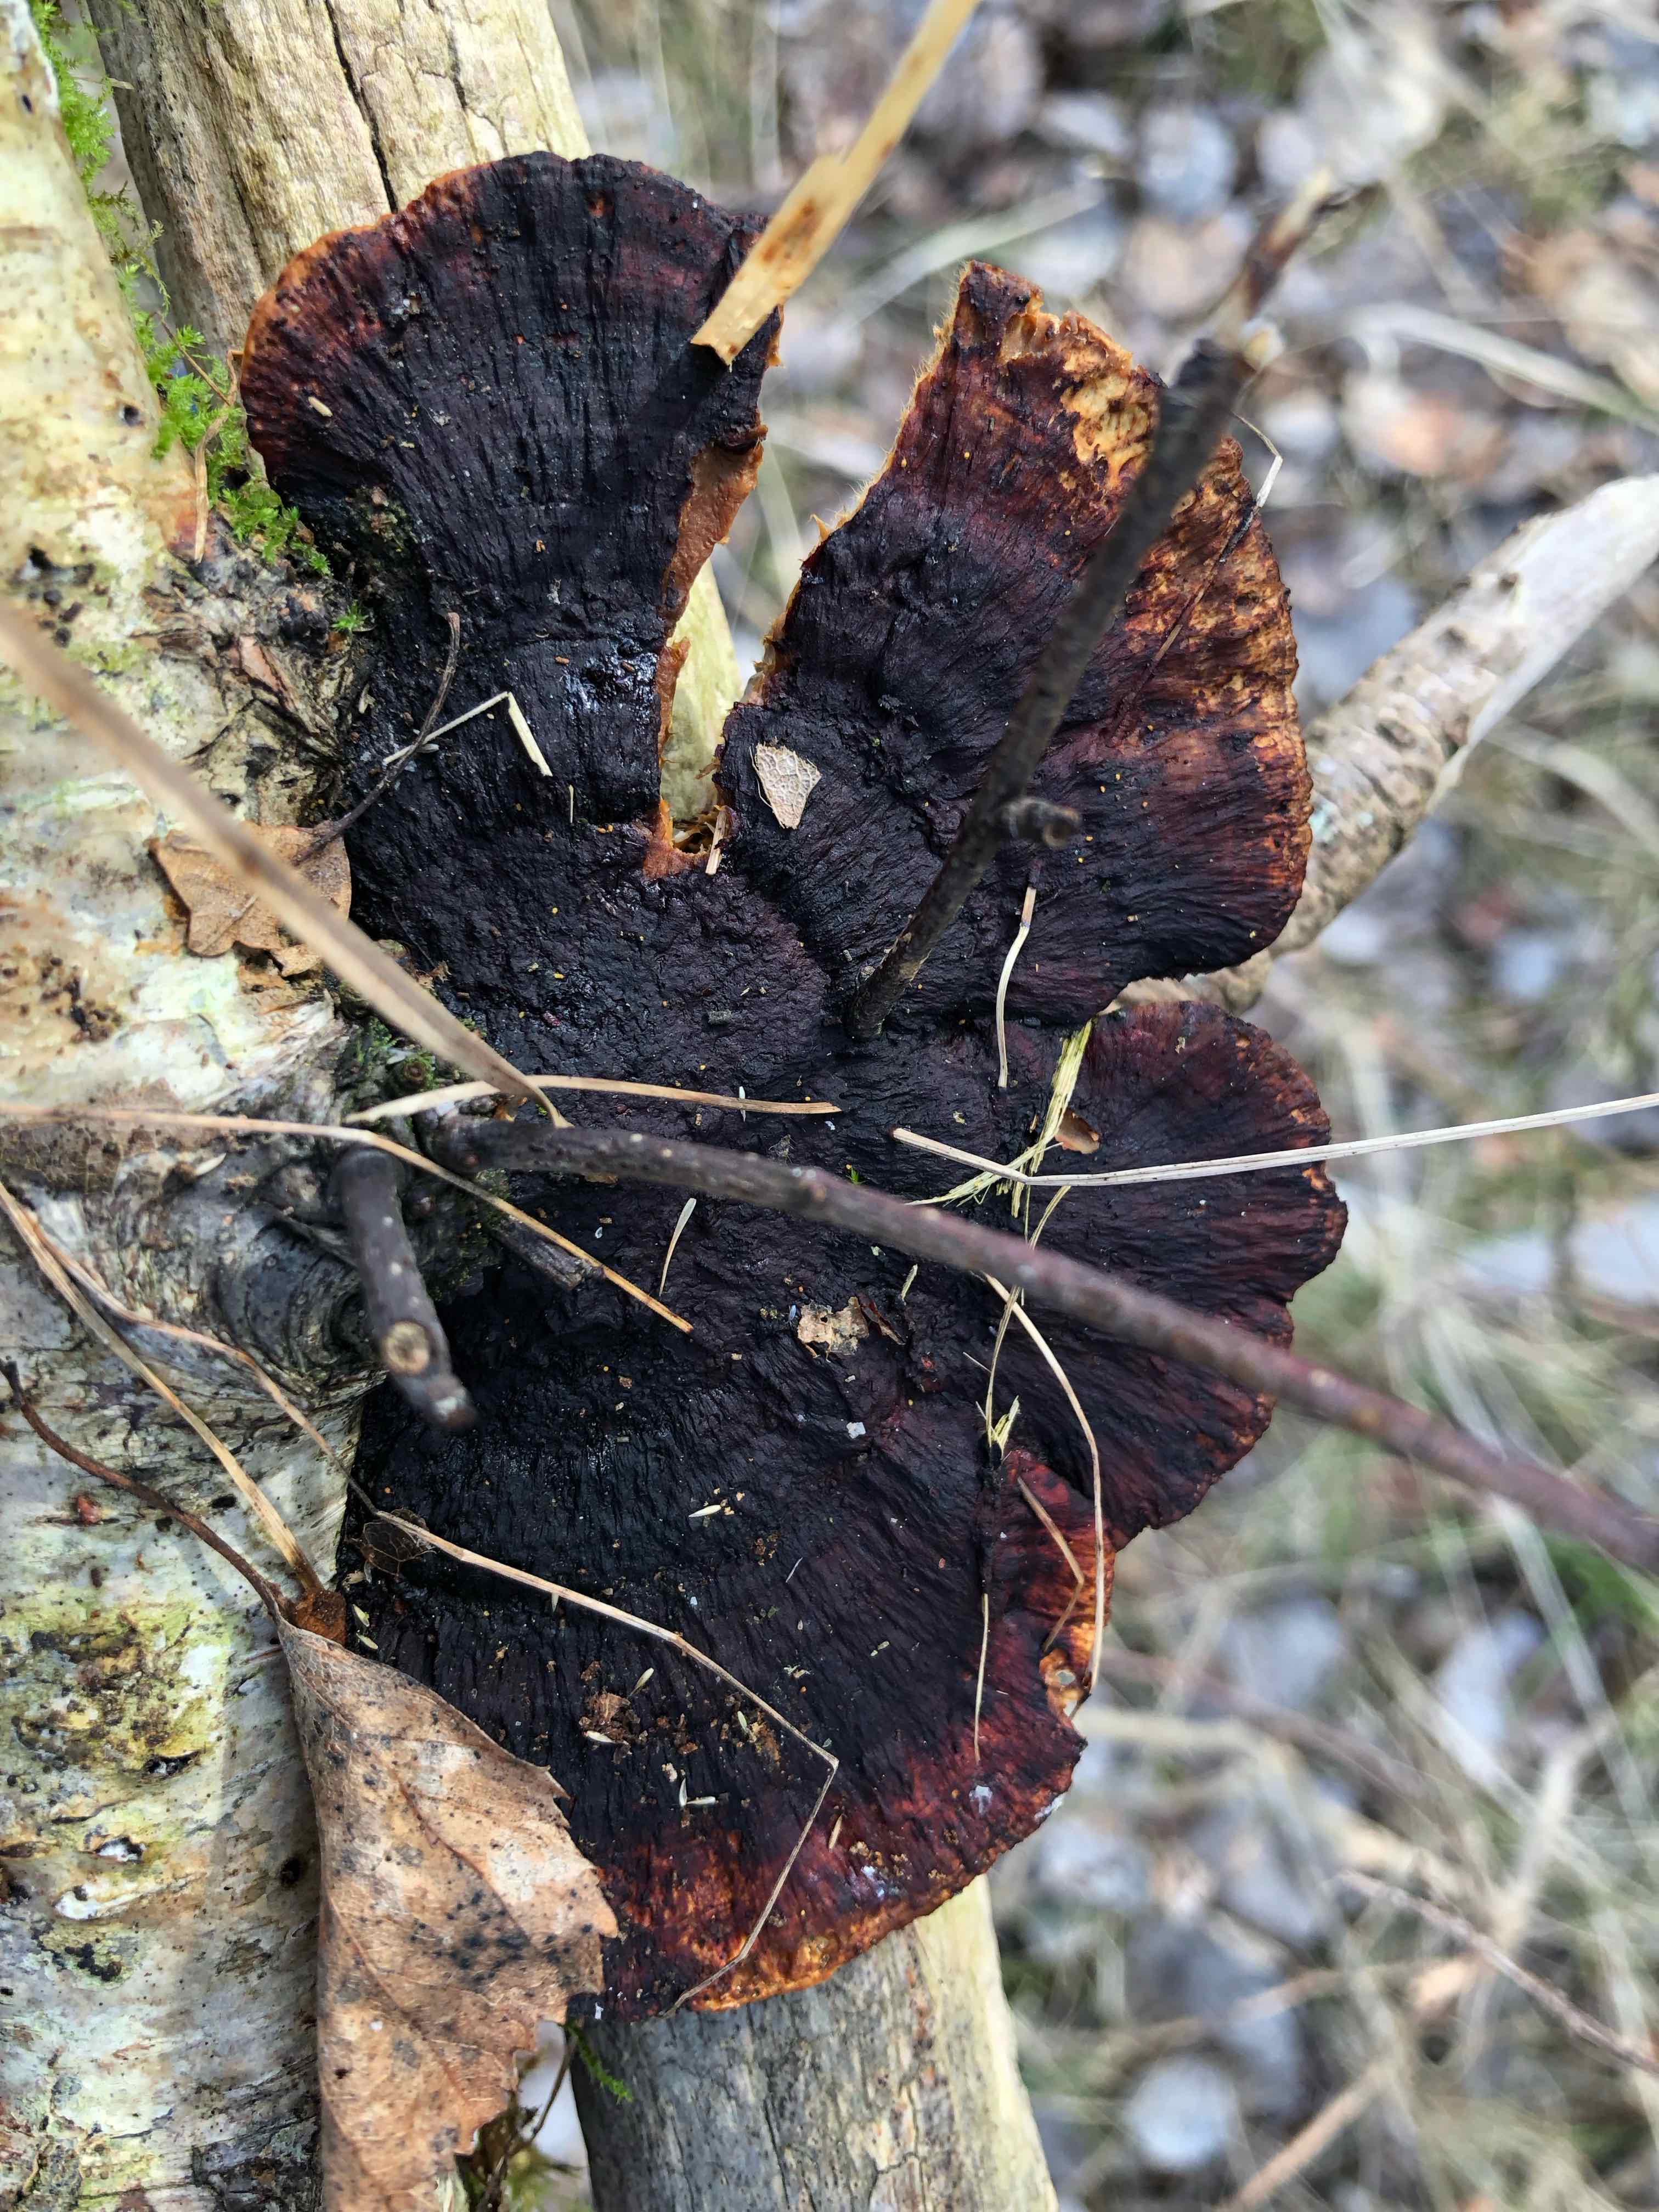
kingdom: Fungi
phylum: Basidiomycota
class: Agaricomycetes
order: Polyporales
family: Polyporaceae
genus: Daedaleopsis
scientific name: Daedaleopsis confragosa
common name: rødmende læderporesvamp
